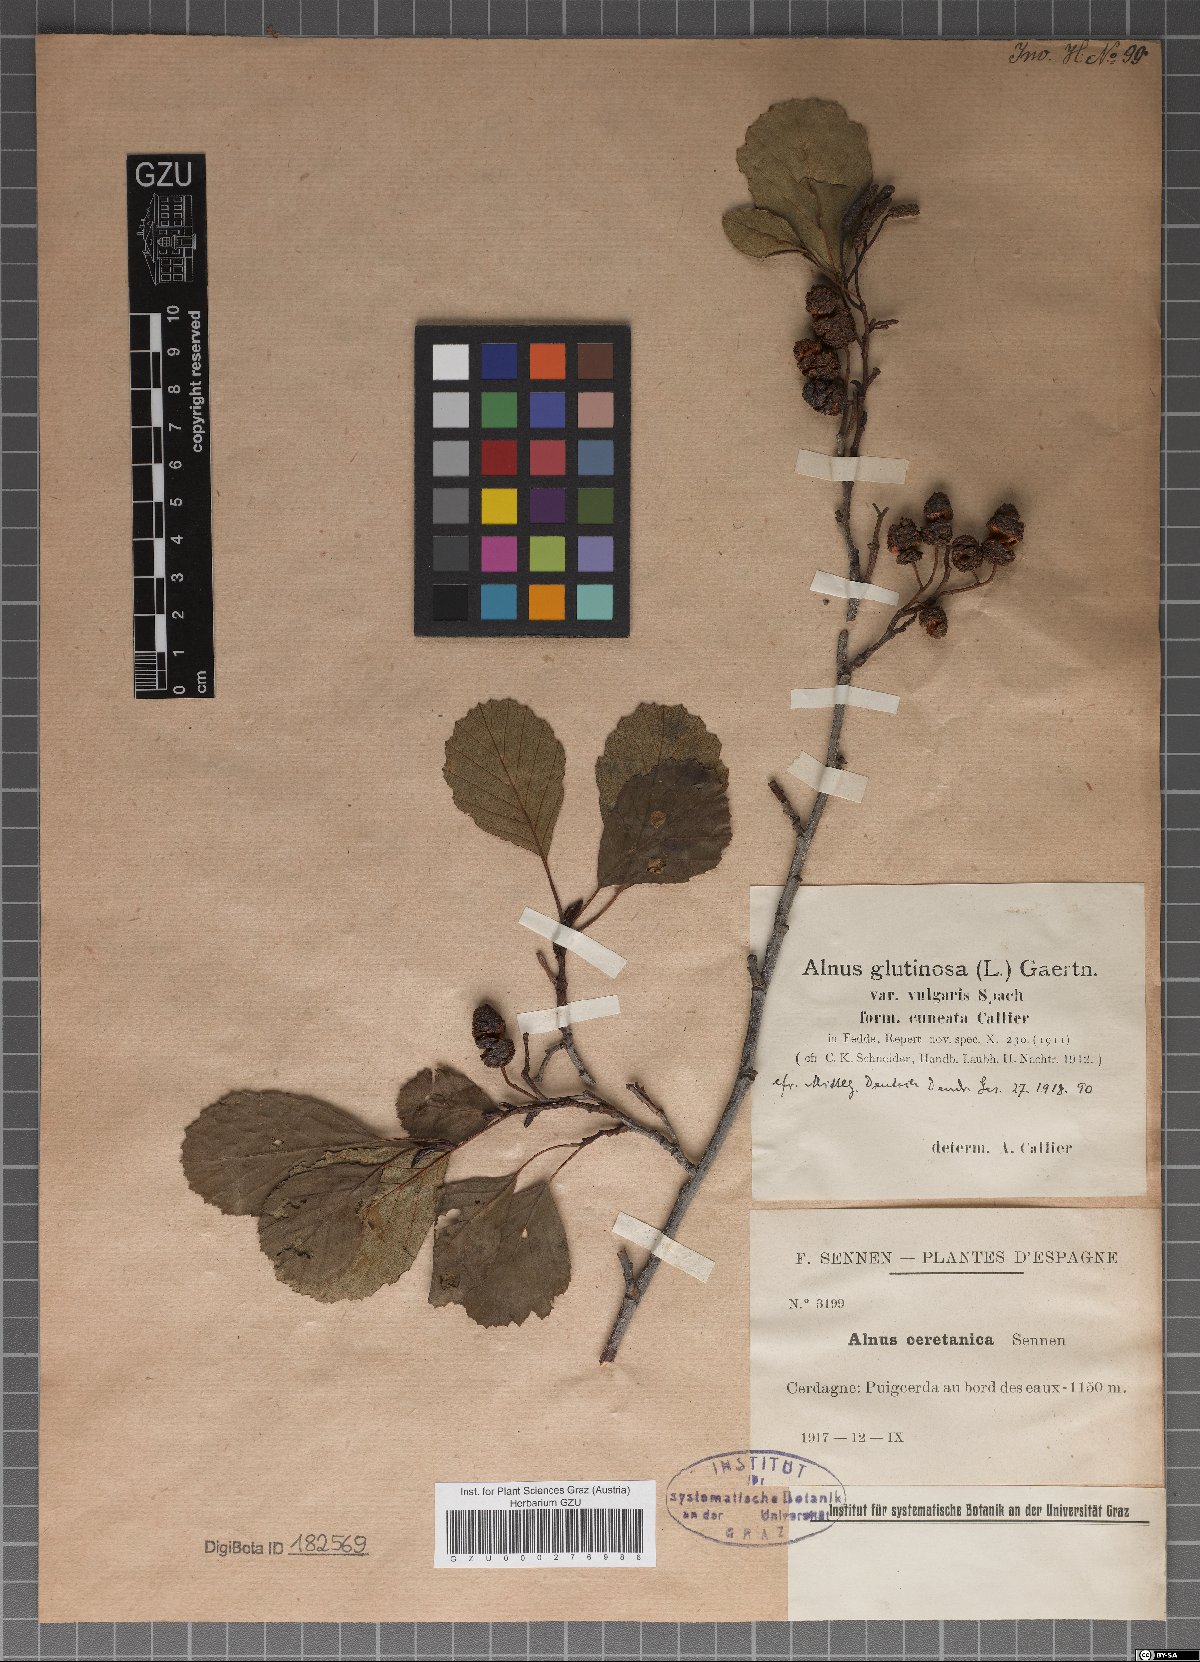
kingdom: Plantae
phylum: Tracheophyta
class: Magnoliopsida
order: Fagales
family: Betulaceae
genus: Alnus
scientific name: Alnus
